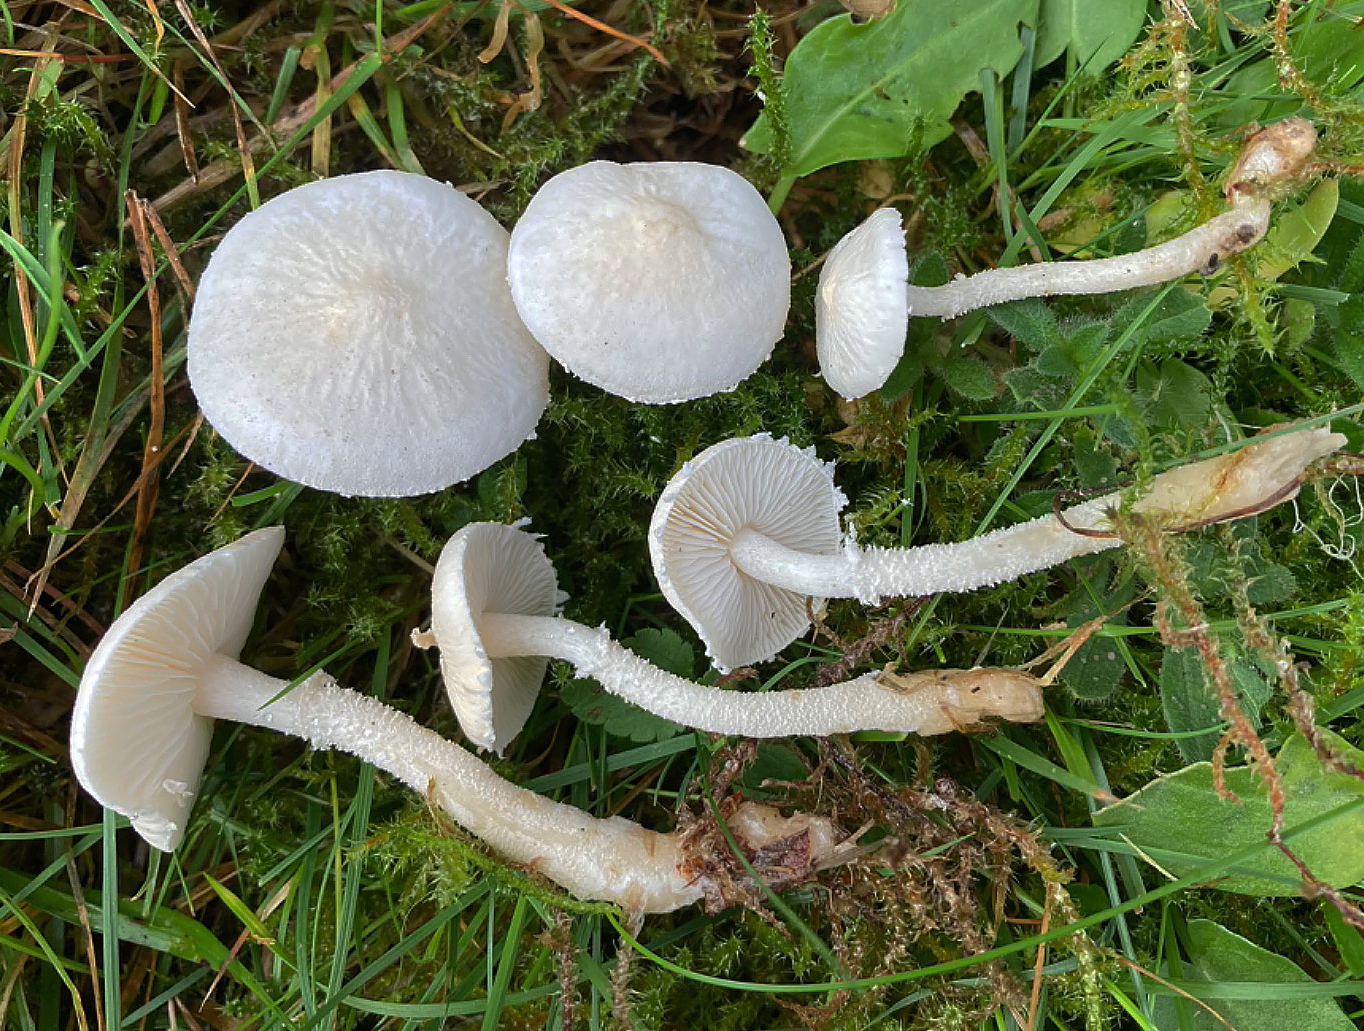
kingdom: Fungi
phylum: Basidiomycota
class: Agaricomycetes
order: Agaricales
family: Tricholomataceae
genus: Cystoderma
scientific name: Cystoderma amianthinum
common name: okkergul grynhat
